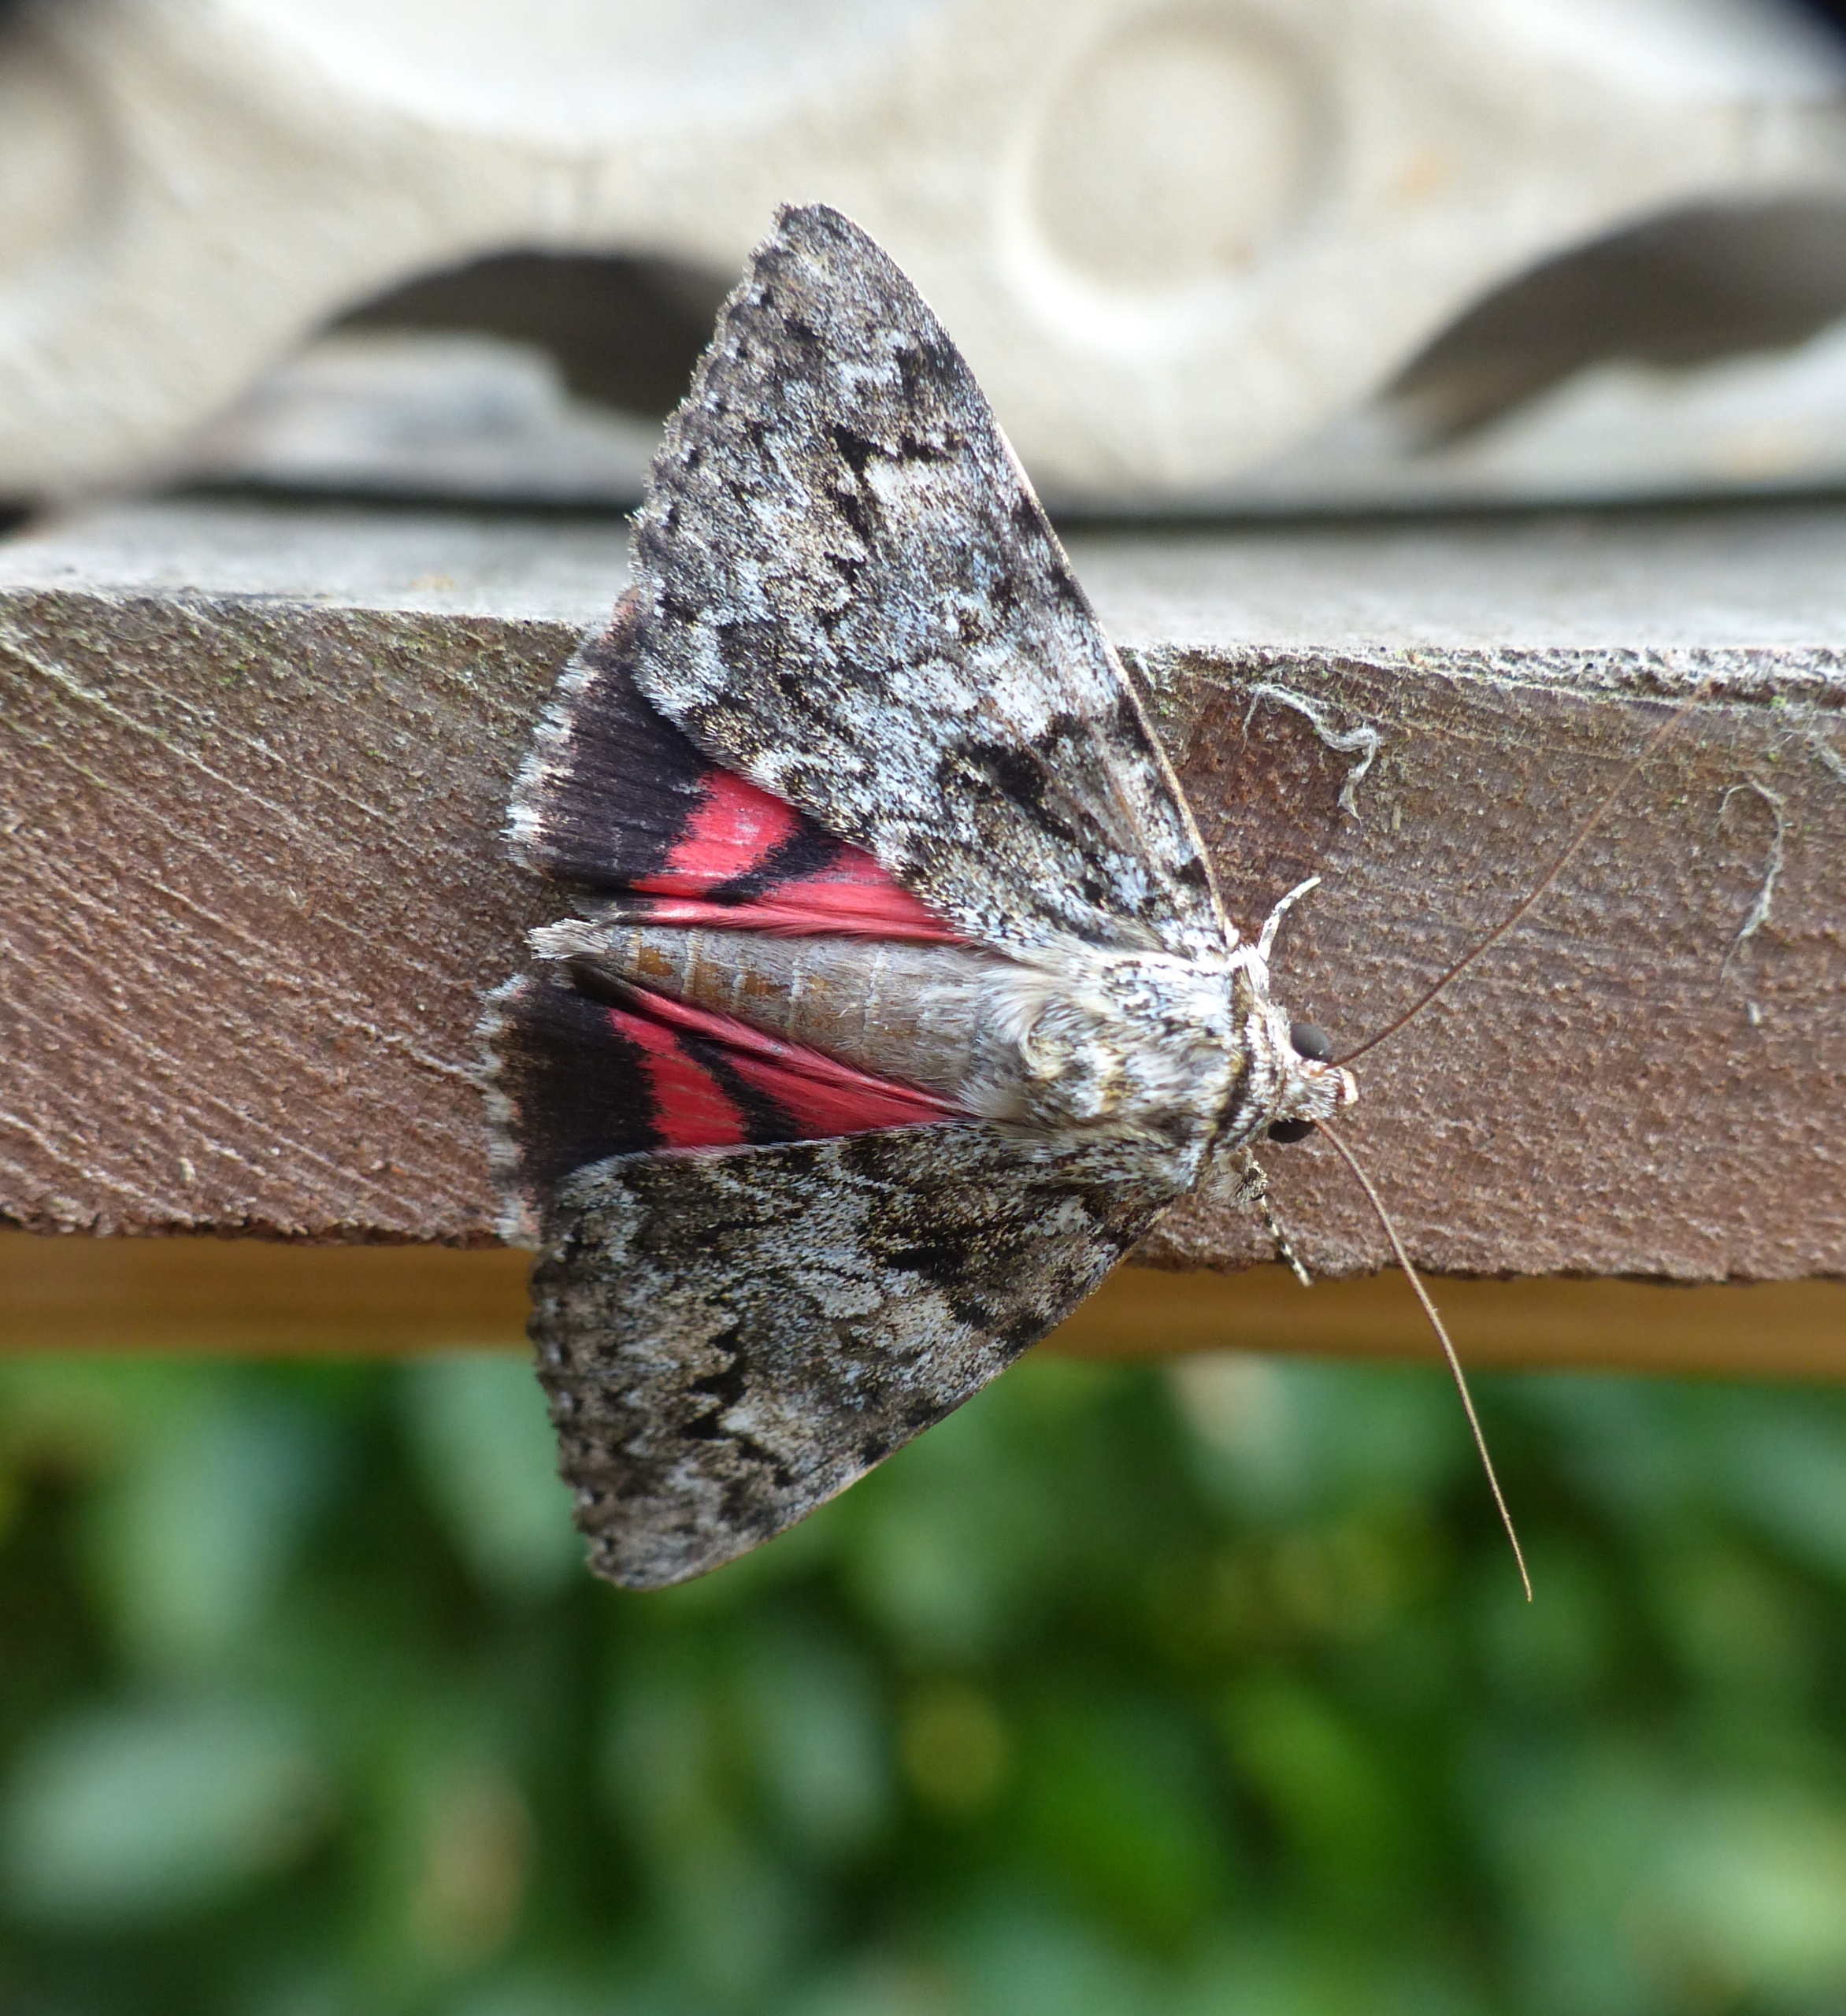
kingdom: Animalia
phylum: Arthropoda
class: Insecta
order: Lepidoptera
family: Erebidae
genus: Catocala
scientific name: Catocala promissa
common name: Egeordensbånd
